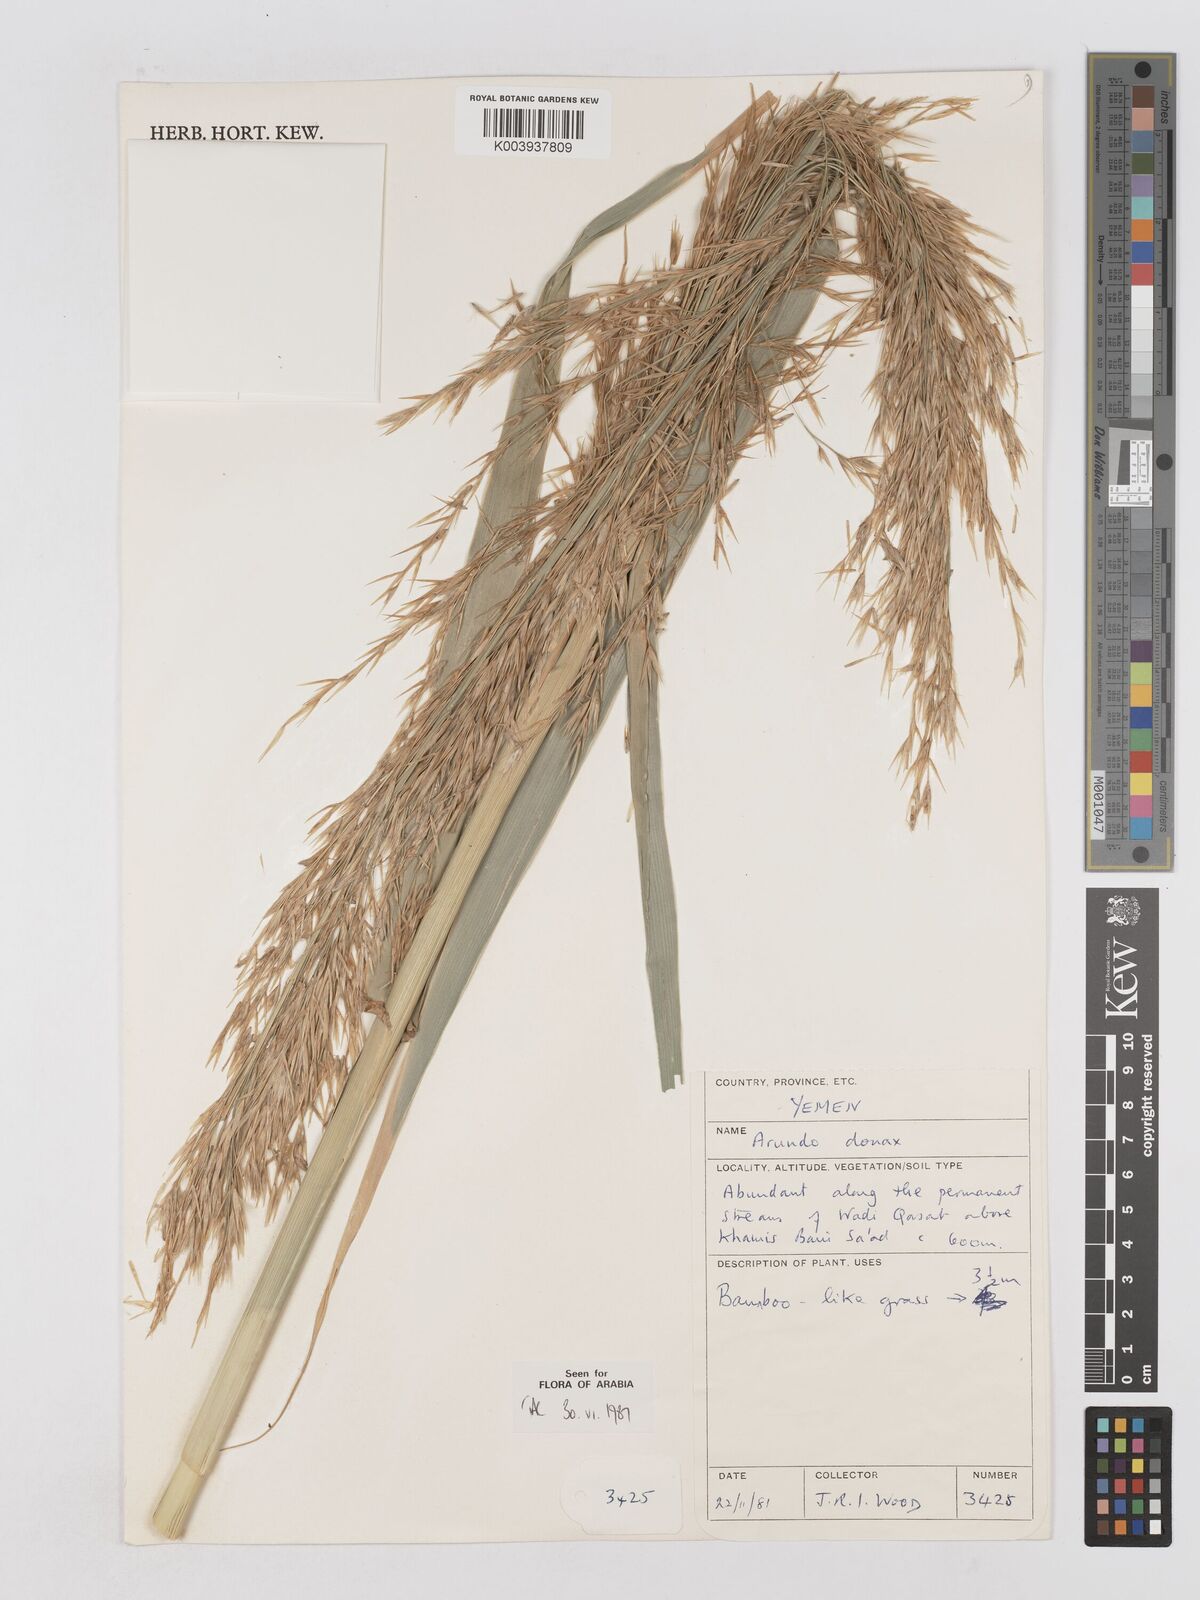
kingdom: Plantae
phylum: Tracheophyta
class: Liliopsida
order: Poales
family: Poaceae
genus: Arundo
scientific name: Arundo donax
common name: Giant reed
